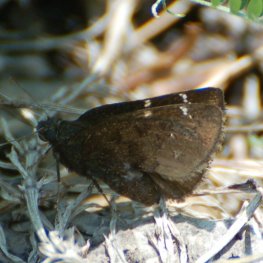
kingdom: Animalia
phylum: Arthropoda
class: Insecta
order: Lepidoptera
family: Hesperiidae
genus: Autochton
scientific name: Autochton
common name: Northern Cloudywing
